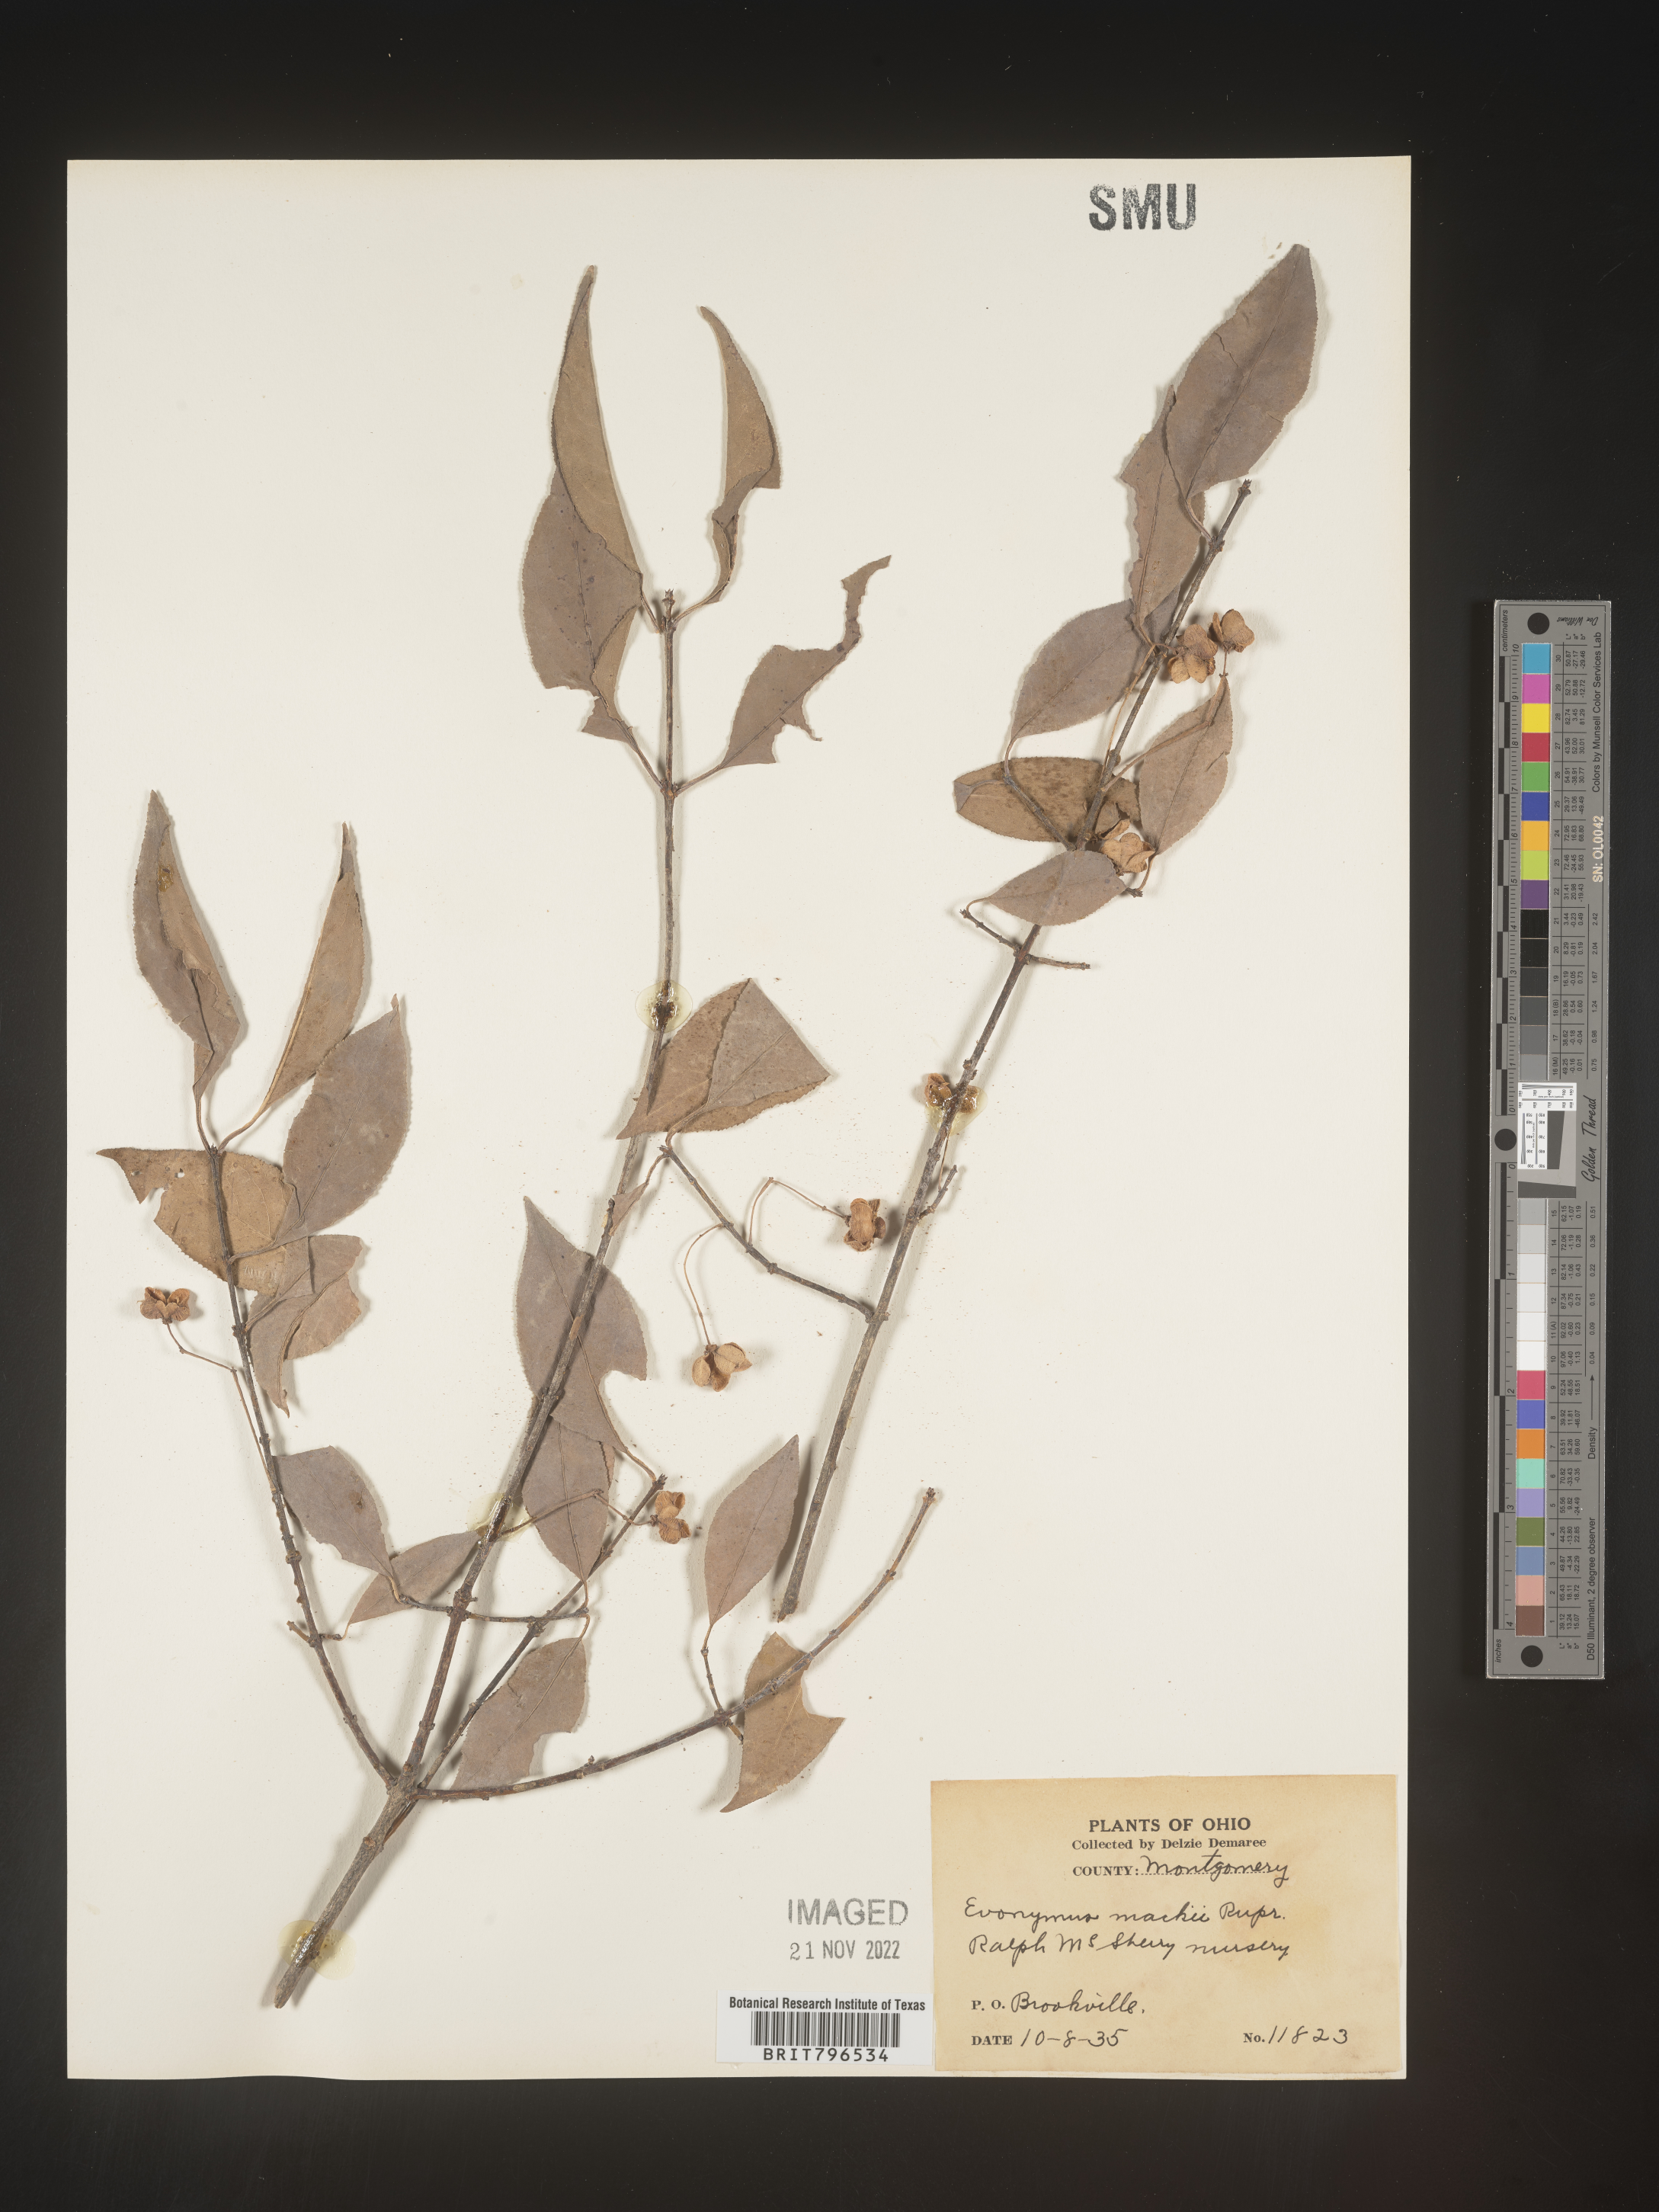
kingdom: Plantae
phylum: Tracheophyta
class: Magnoliopsida
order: Celastrales
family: Celastraceae
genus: Euonymus
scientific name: Euonymus
